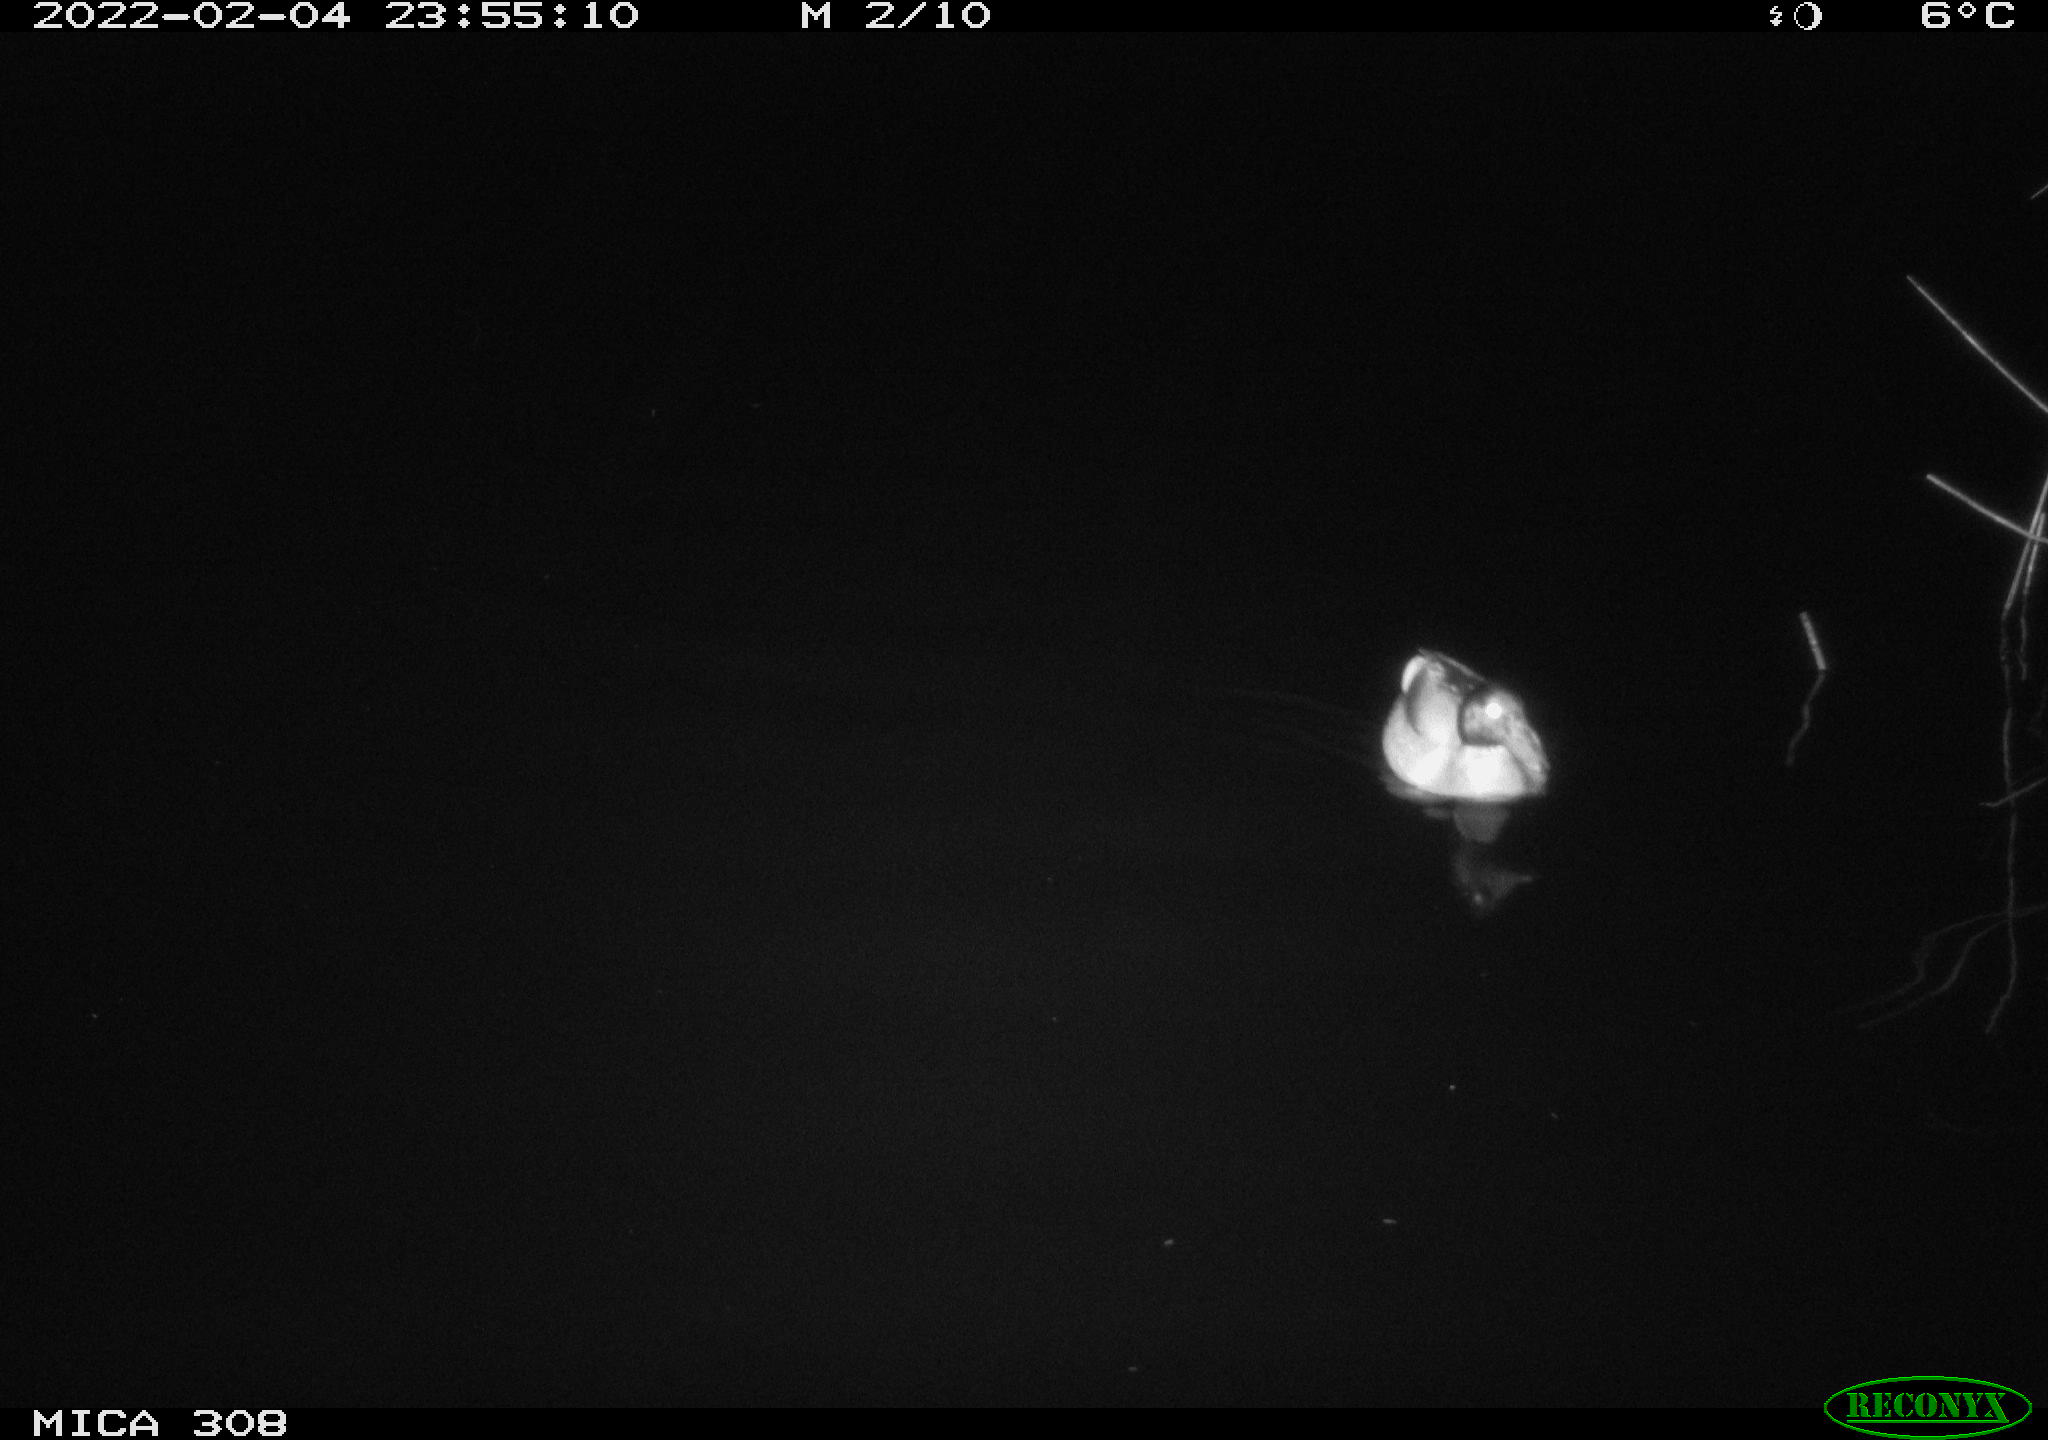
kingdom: Animalia
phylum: Chordata
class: Aves
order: Anseriformes
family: Anatidae
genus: Anas
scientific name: Anas platyrhynchos
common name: Mallard
